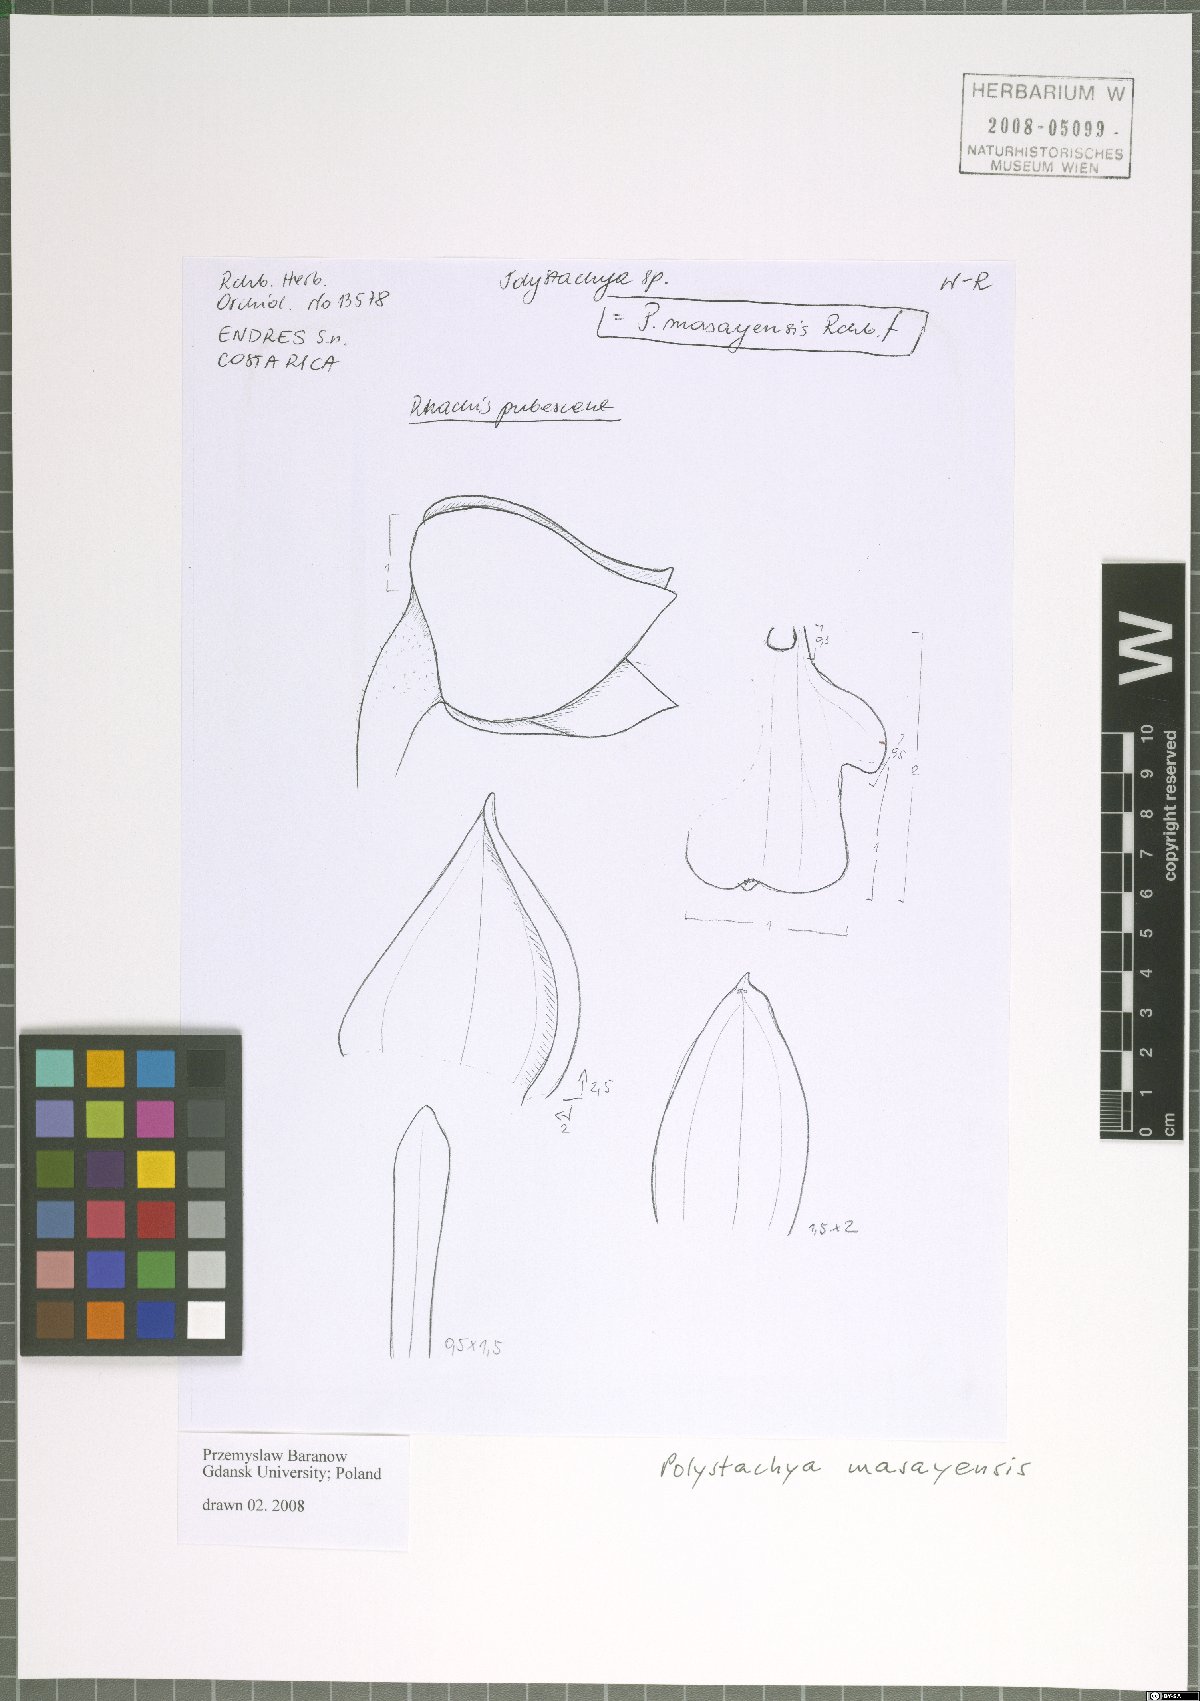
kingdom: Plantae
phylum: Tracheophyta
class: Liliopsida
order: Asparagales
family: Orchidaceae
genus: Polystachya
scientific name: Polystachya masayensis
